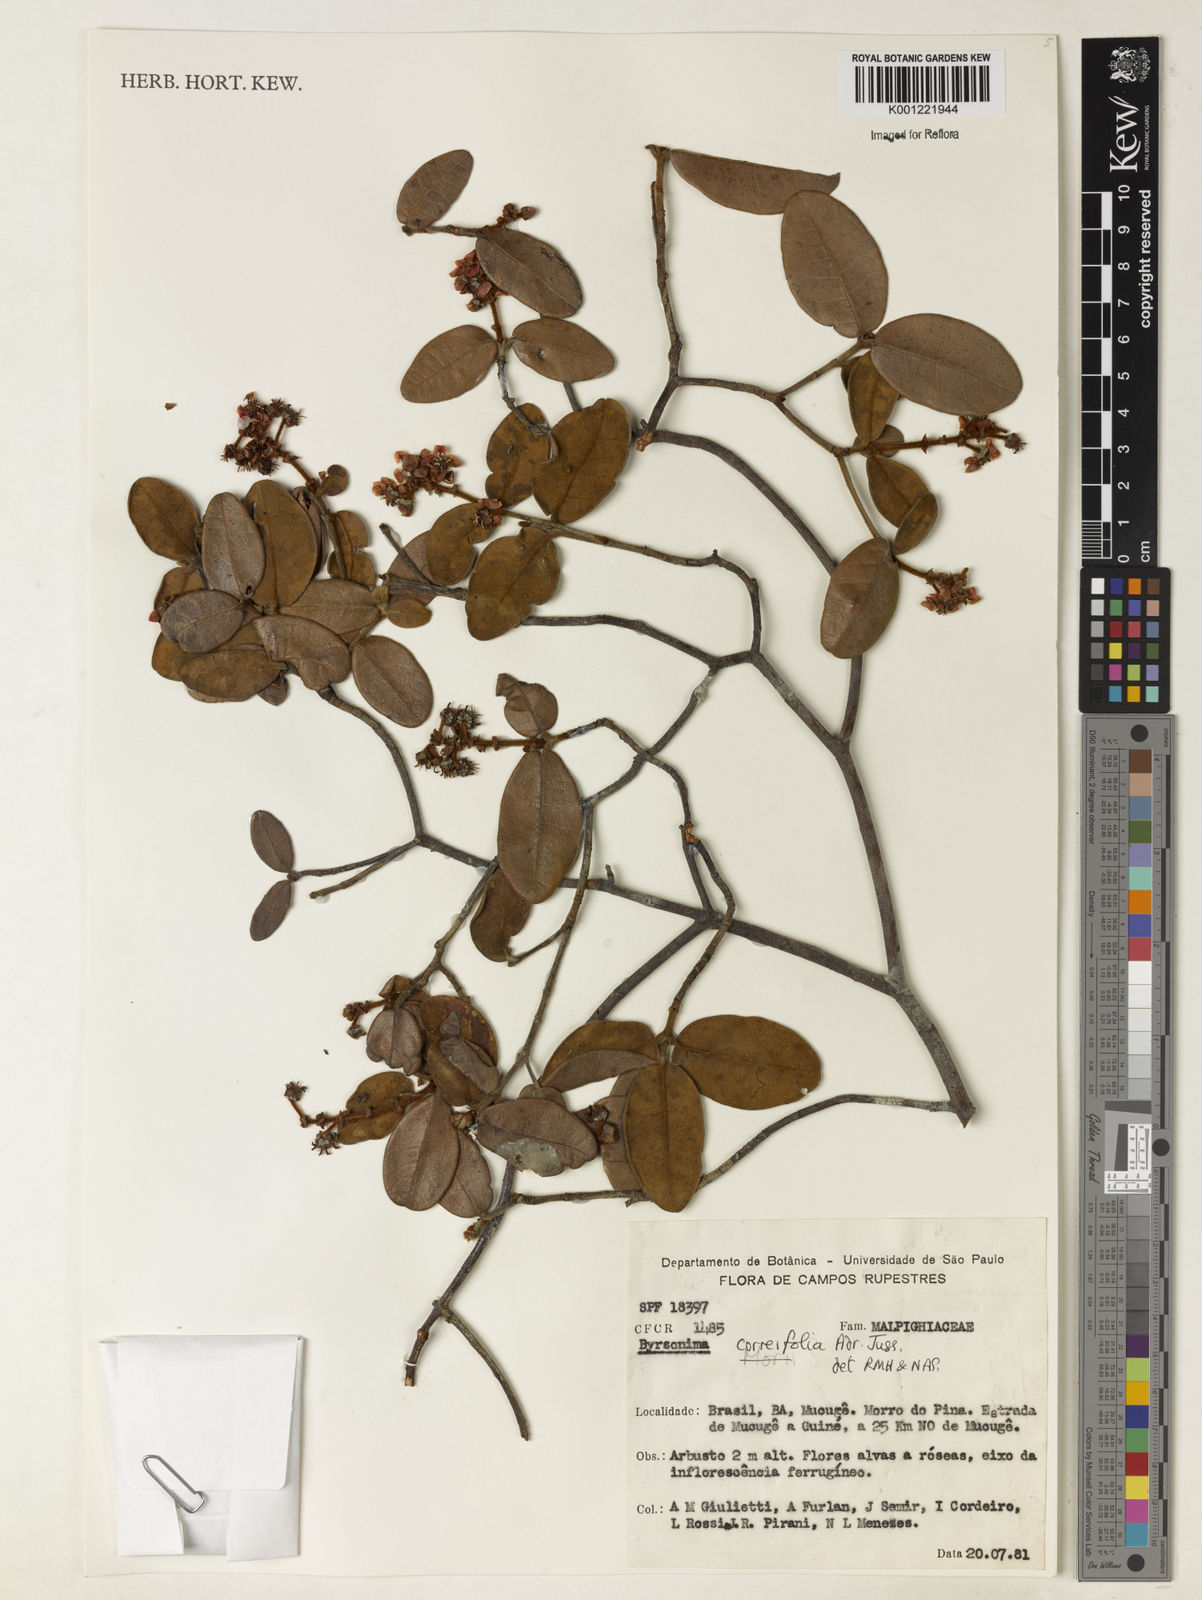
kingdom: Plantae
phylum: Tracheophyta
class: Magnoliopsida
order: Malpighiales
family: Malpighiaceae
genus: Byrsonima
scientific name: Byrsonima correifolia
